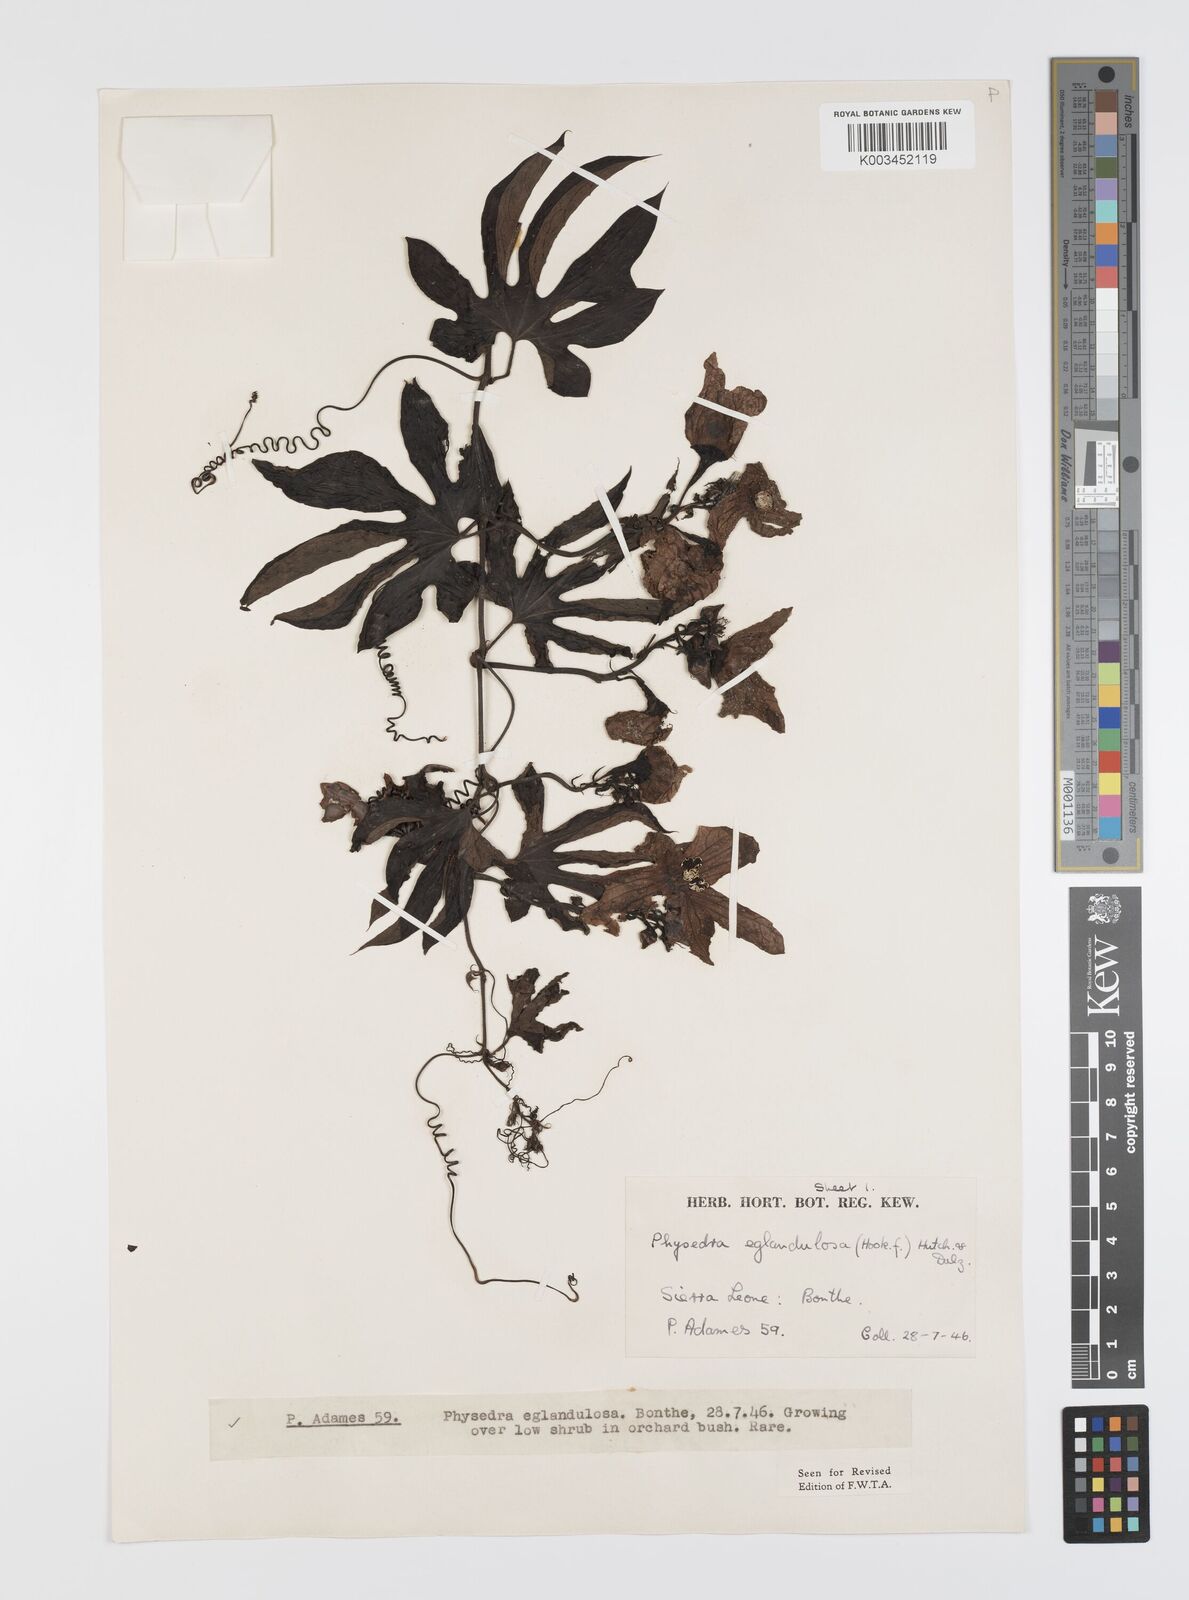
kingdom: Plantae
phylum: Tracheophyta
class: Magnoliopsida
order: Cucurbitales
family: Cucurbitaceae
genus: Ruthalicia
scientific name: Ruthalicia eglandulosa
